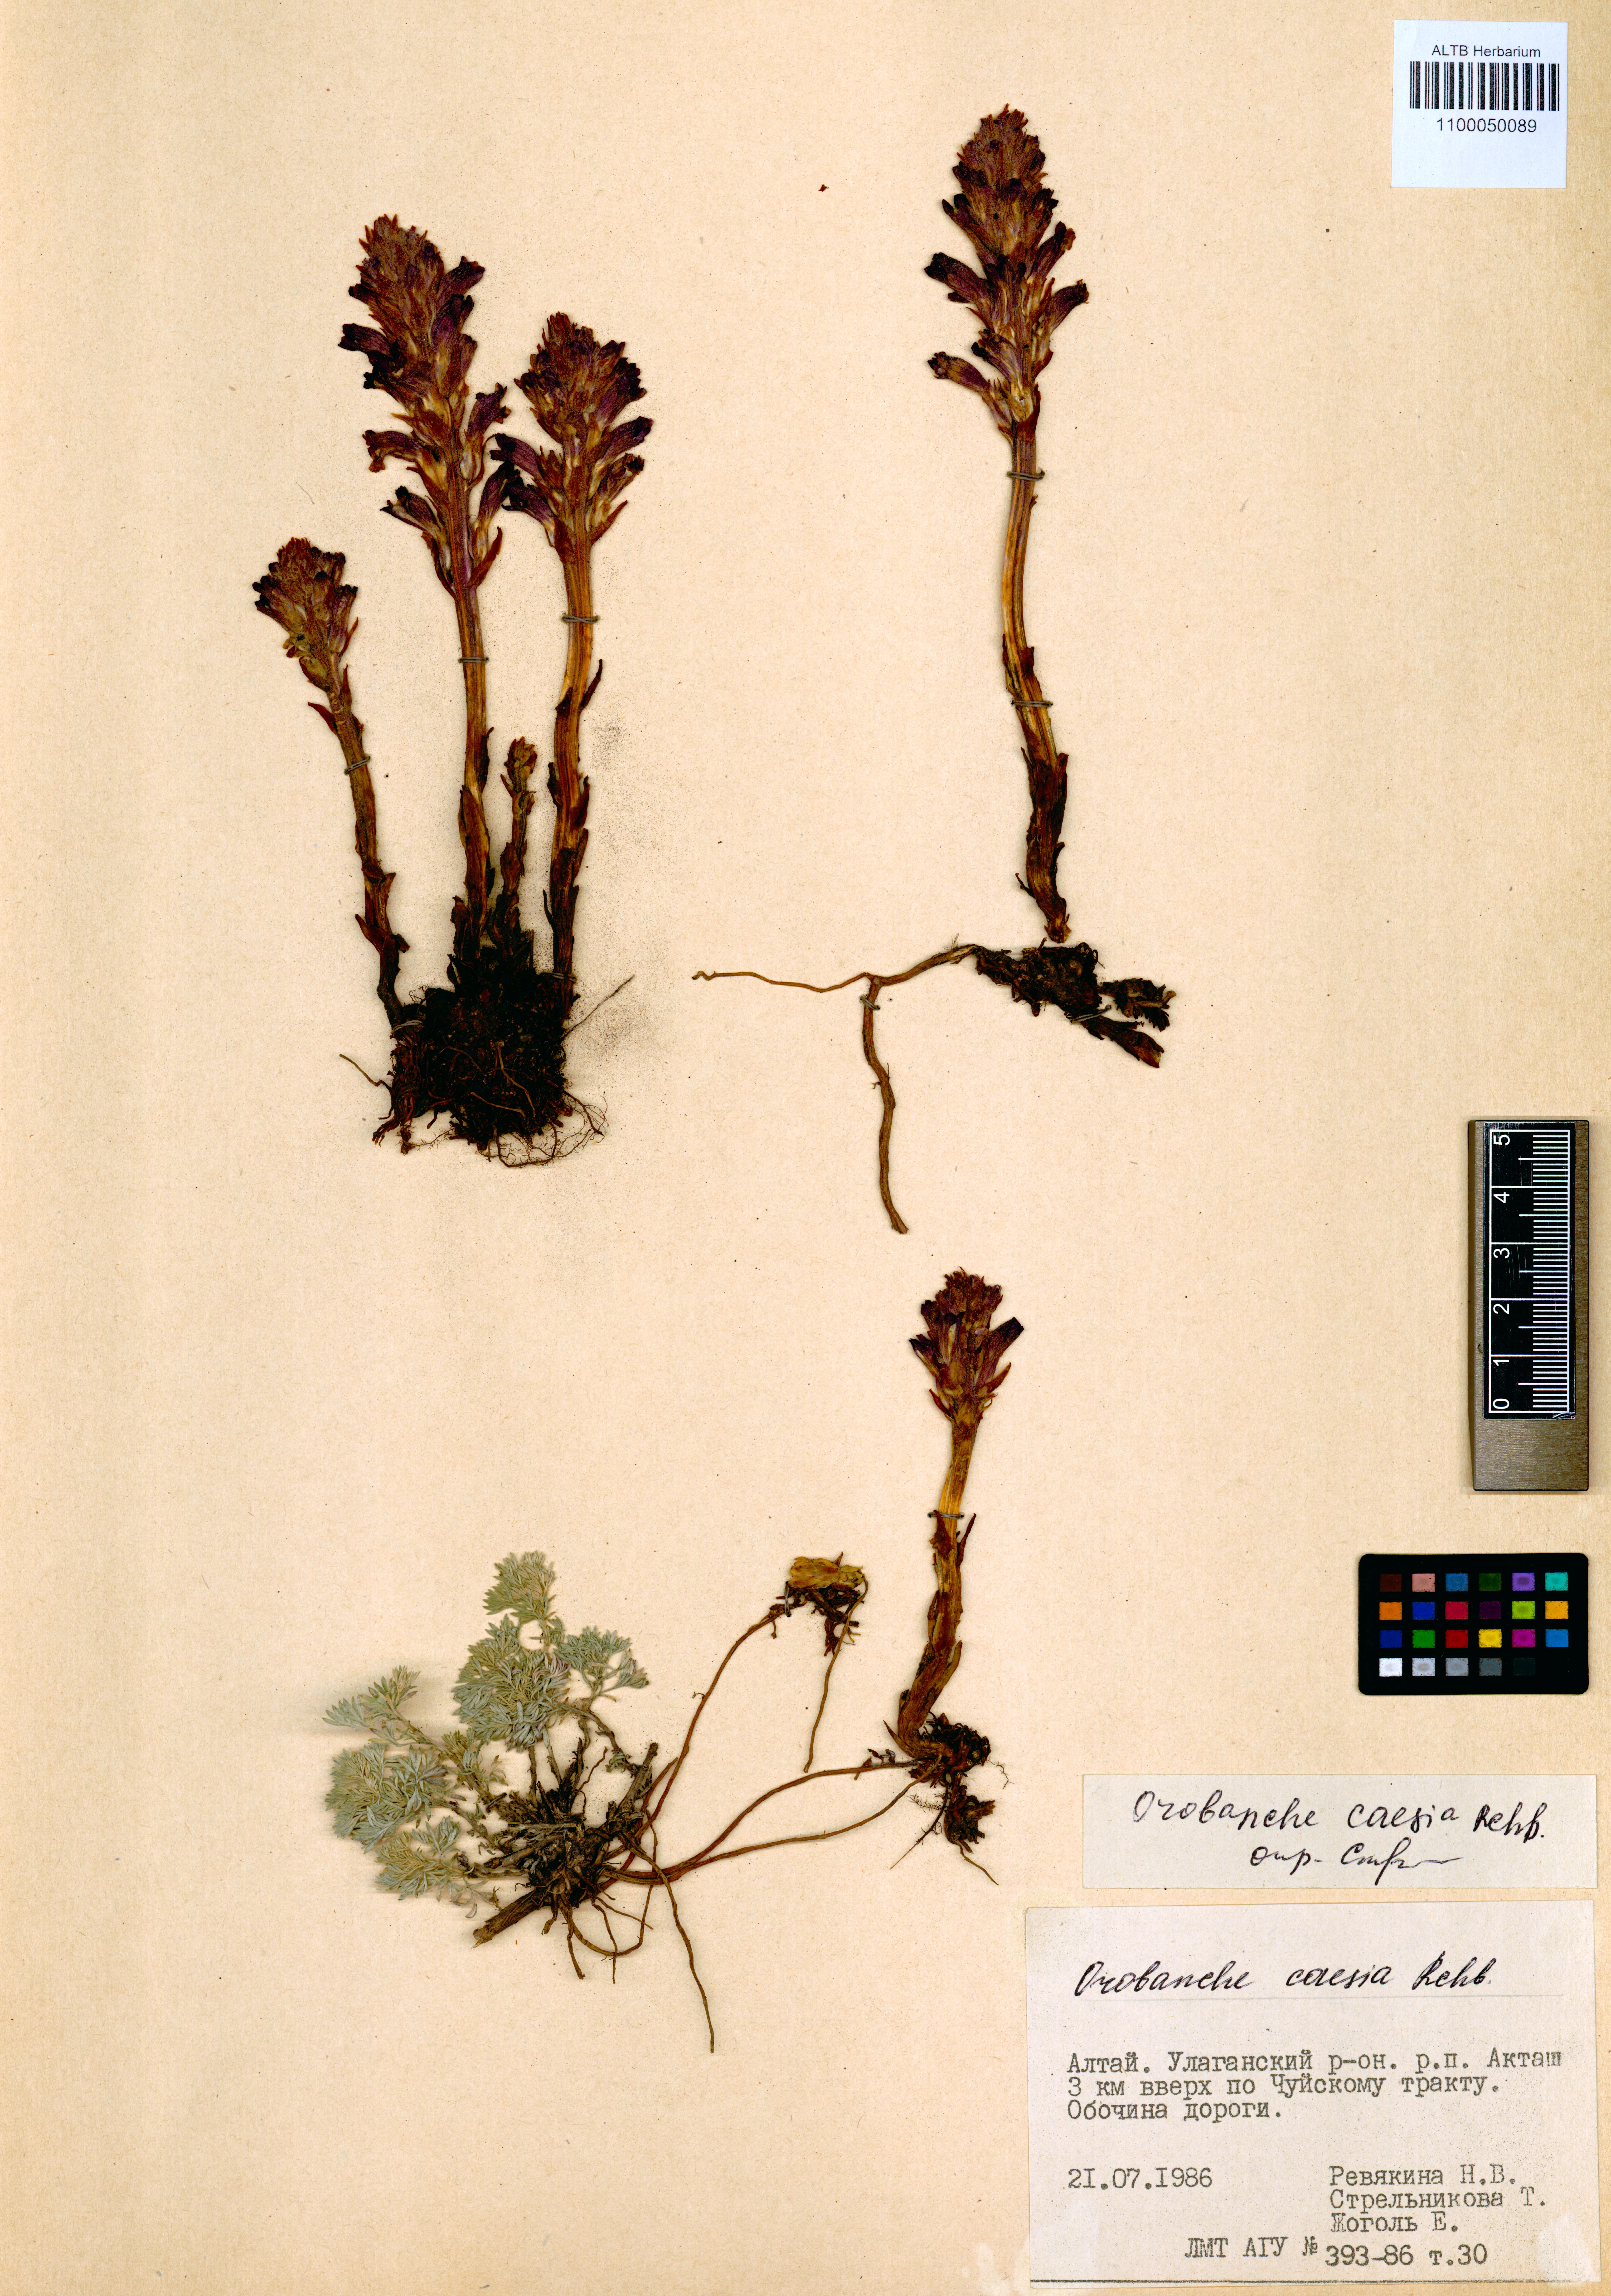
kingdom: Plantae
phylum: Tracheophyta
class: Magnoliopsida
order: Lamiales
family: Orobanchaceae
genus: Phelipanche
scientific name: Phelipanche caesia
